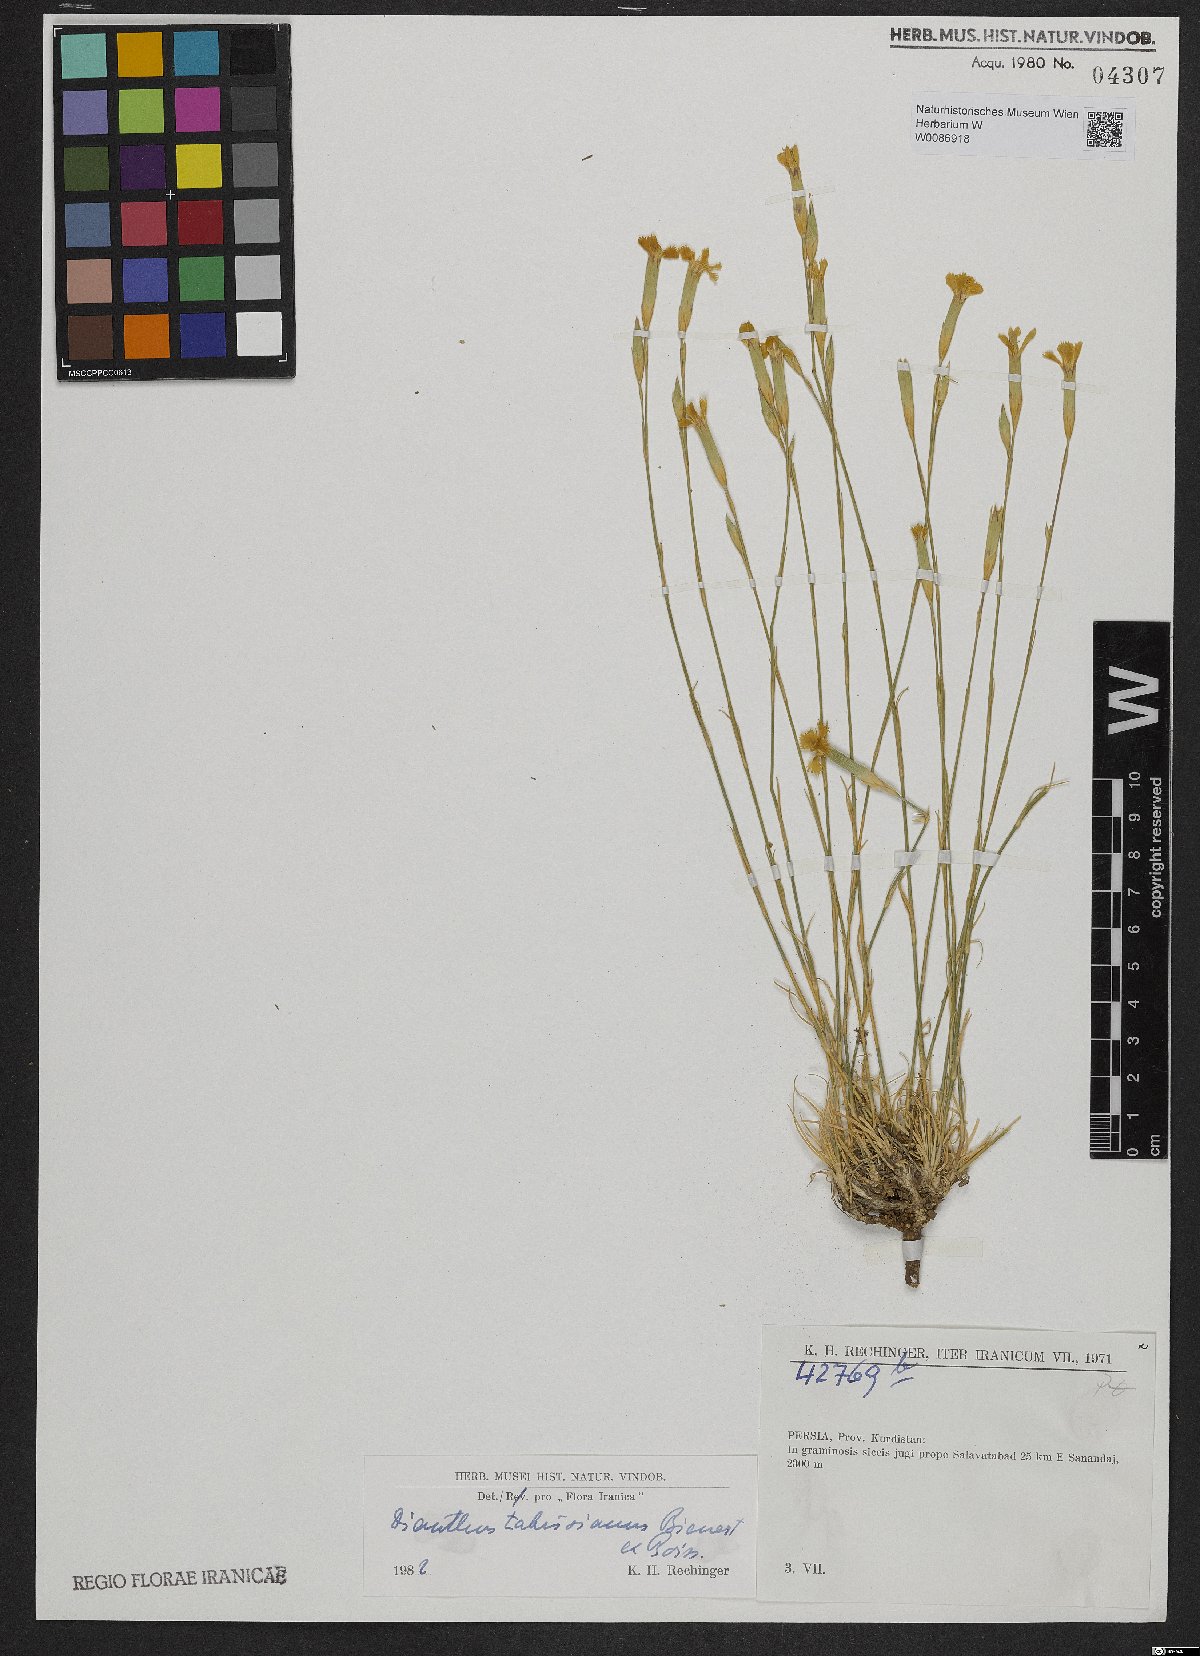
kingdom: Plantae
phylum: Tracheophyta
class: Magnoliopsida
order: Caryophyllales
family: Caryophyllaceae
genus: Dianthus
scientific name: Dianthus tabrisianus
